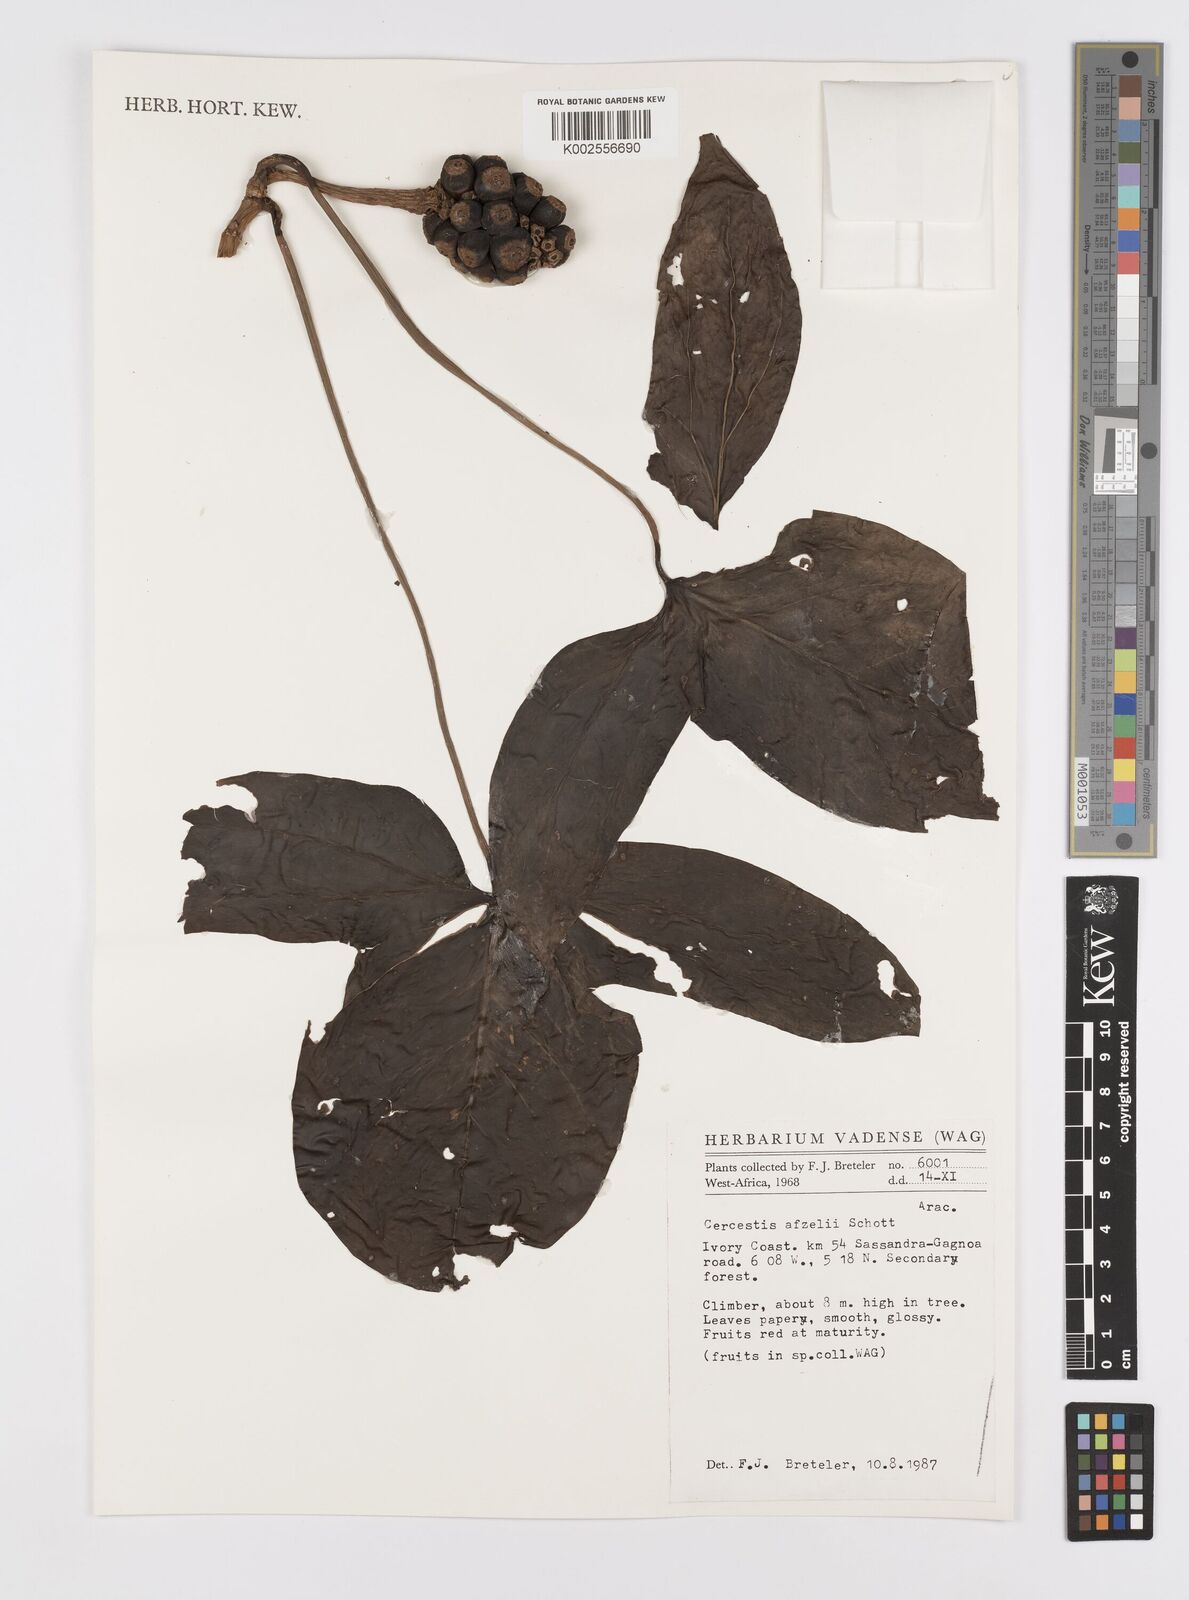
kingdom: Plantae
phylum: Tracheophyta
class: Liliopsida
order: Alismatales
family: Araceae
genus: Cercestis
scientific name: Cercestis afzelii
